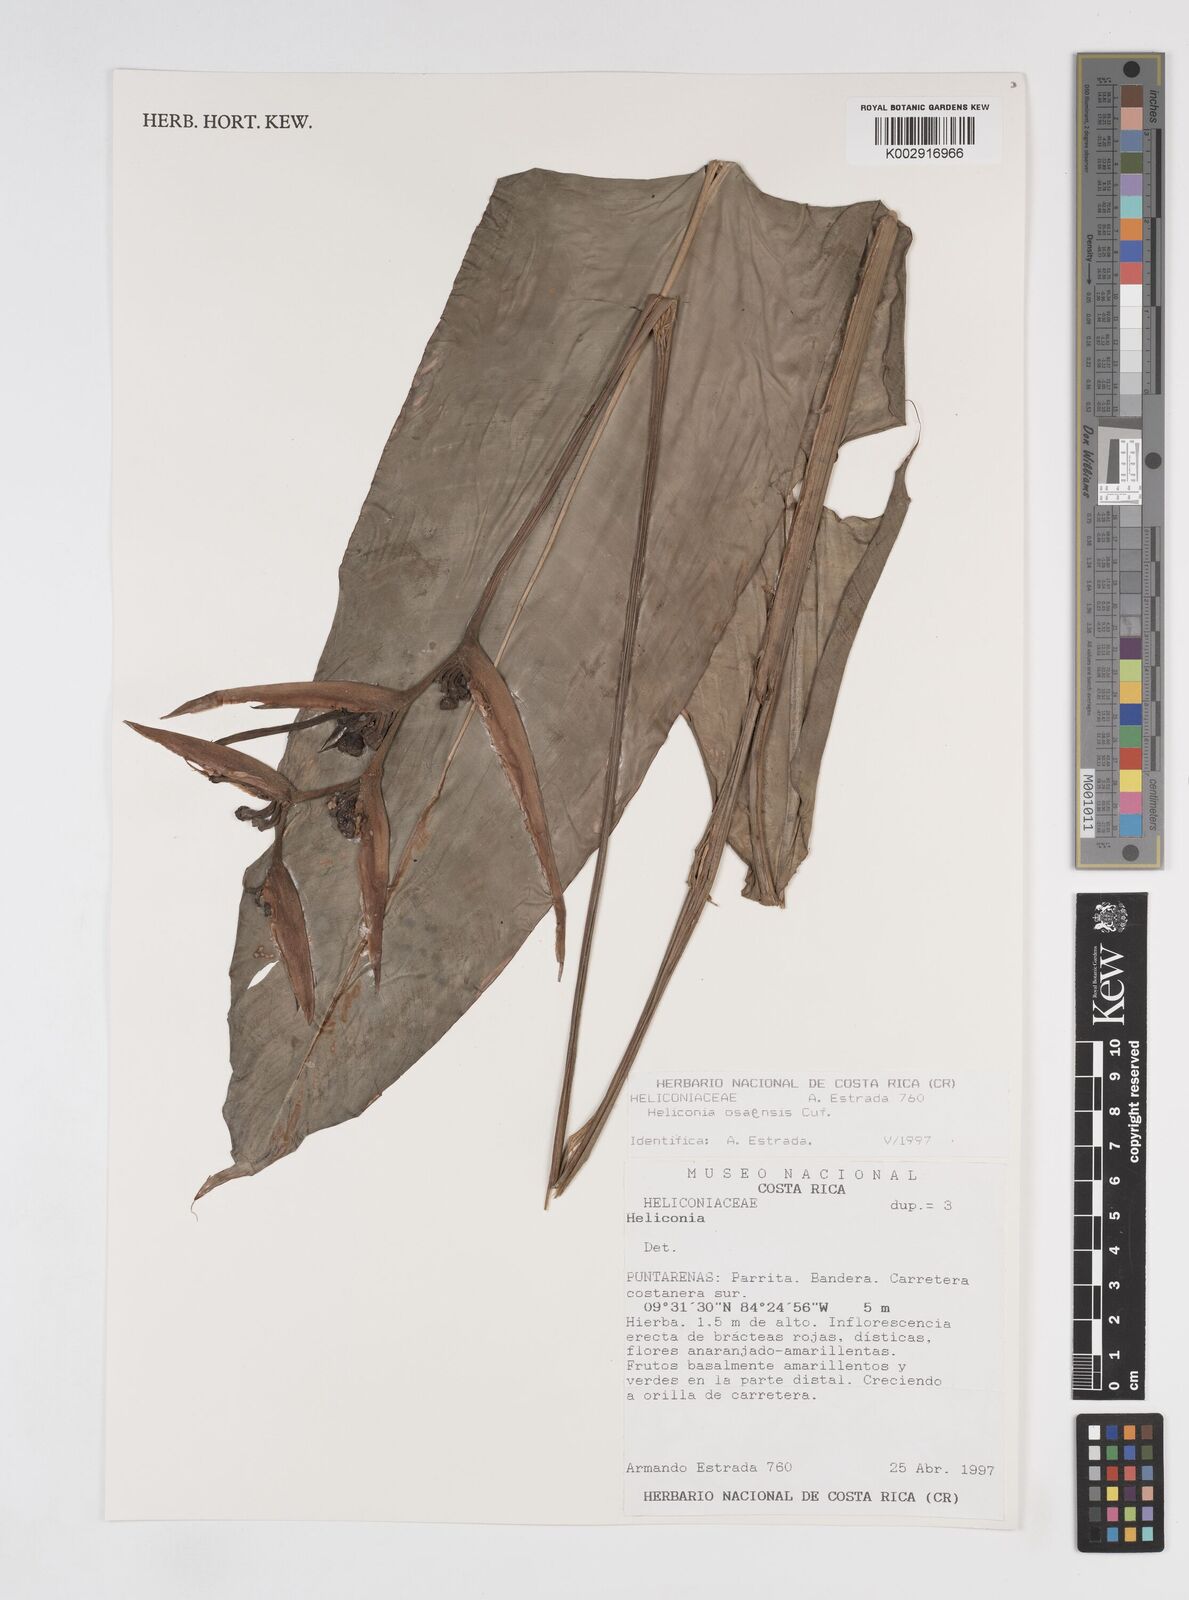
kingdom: Plantae
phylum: Tracheophyta
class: Liliopsida
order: Zingiberales
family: Heliconiaceae
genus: Heliconia
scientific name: Heliconia osaensis
